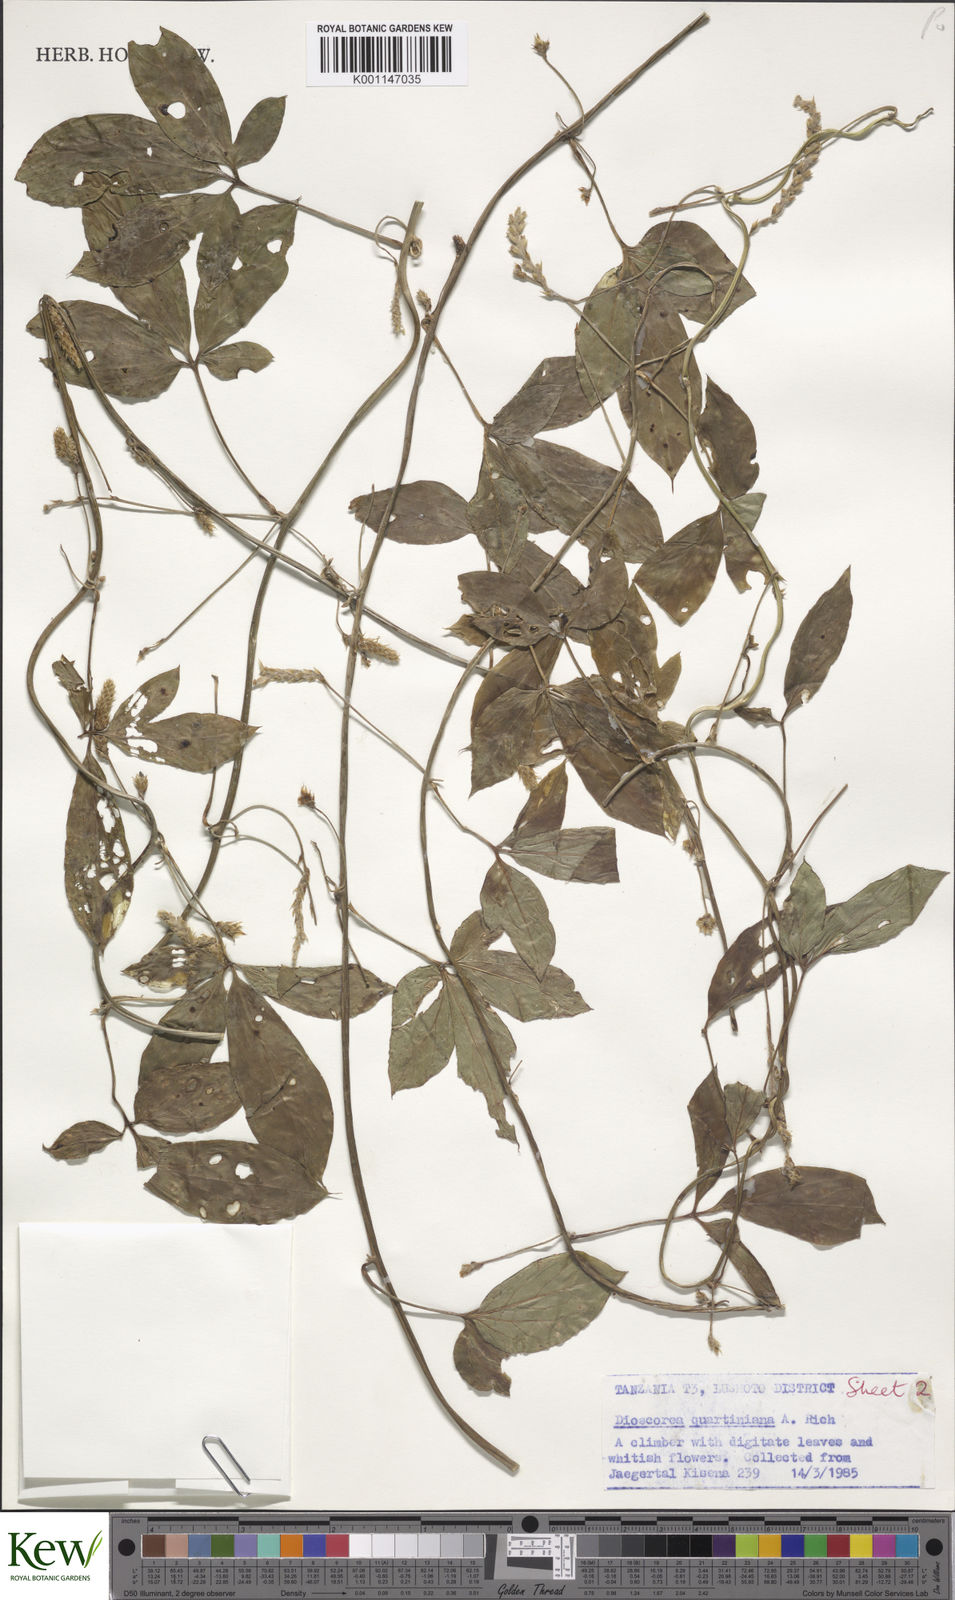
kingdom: Plantae
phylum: Tracheophyta
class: Liliopsida
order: Dioscoreales
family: Dioscoreaceae
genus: Dioscorea
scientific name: Dioscorea quartiniana
